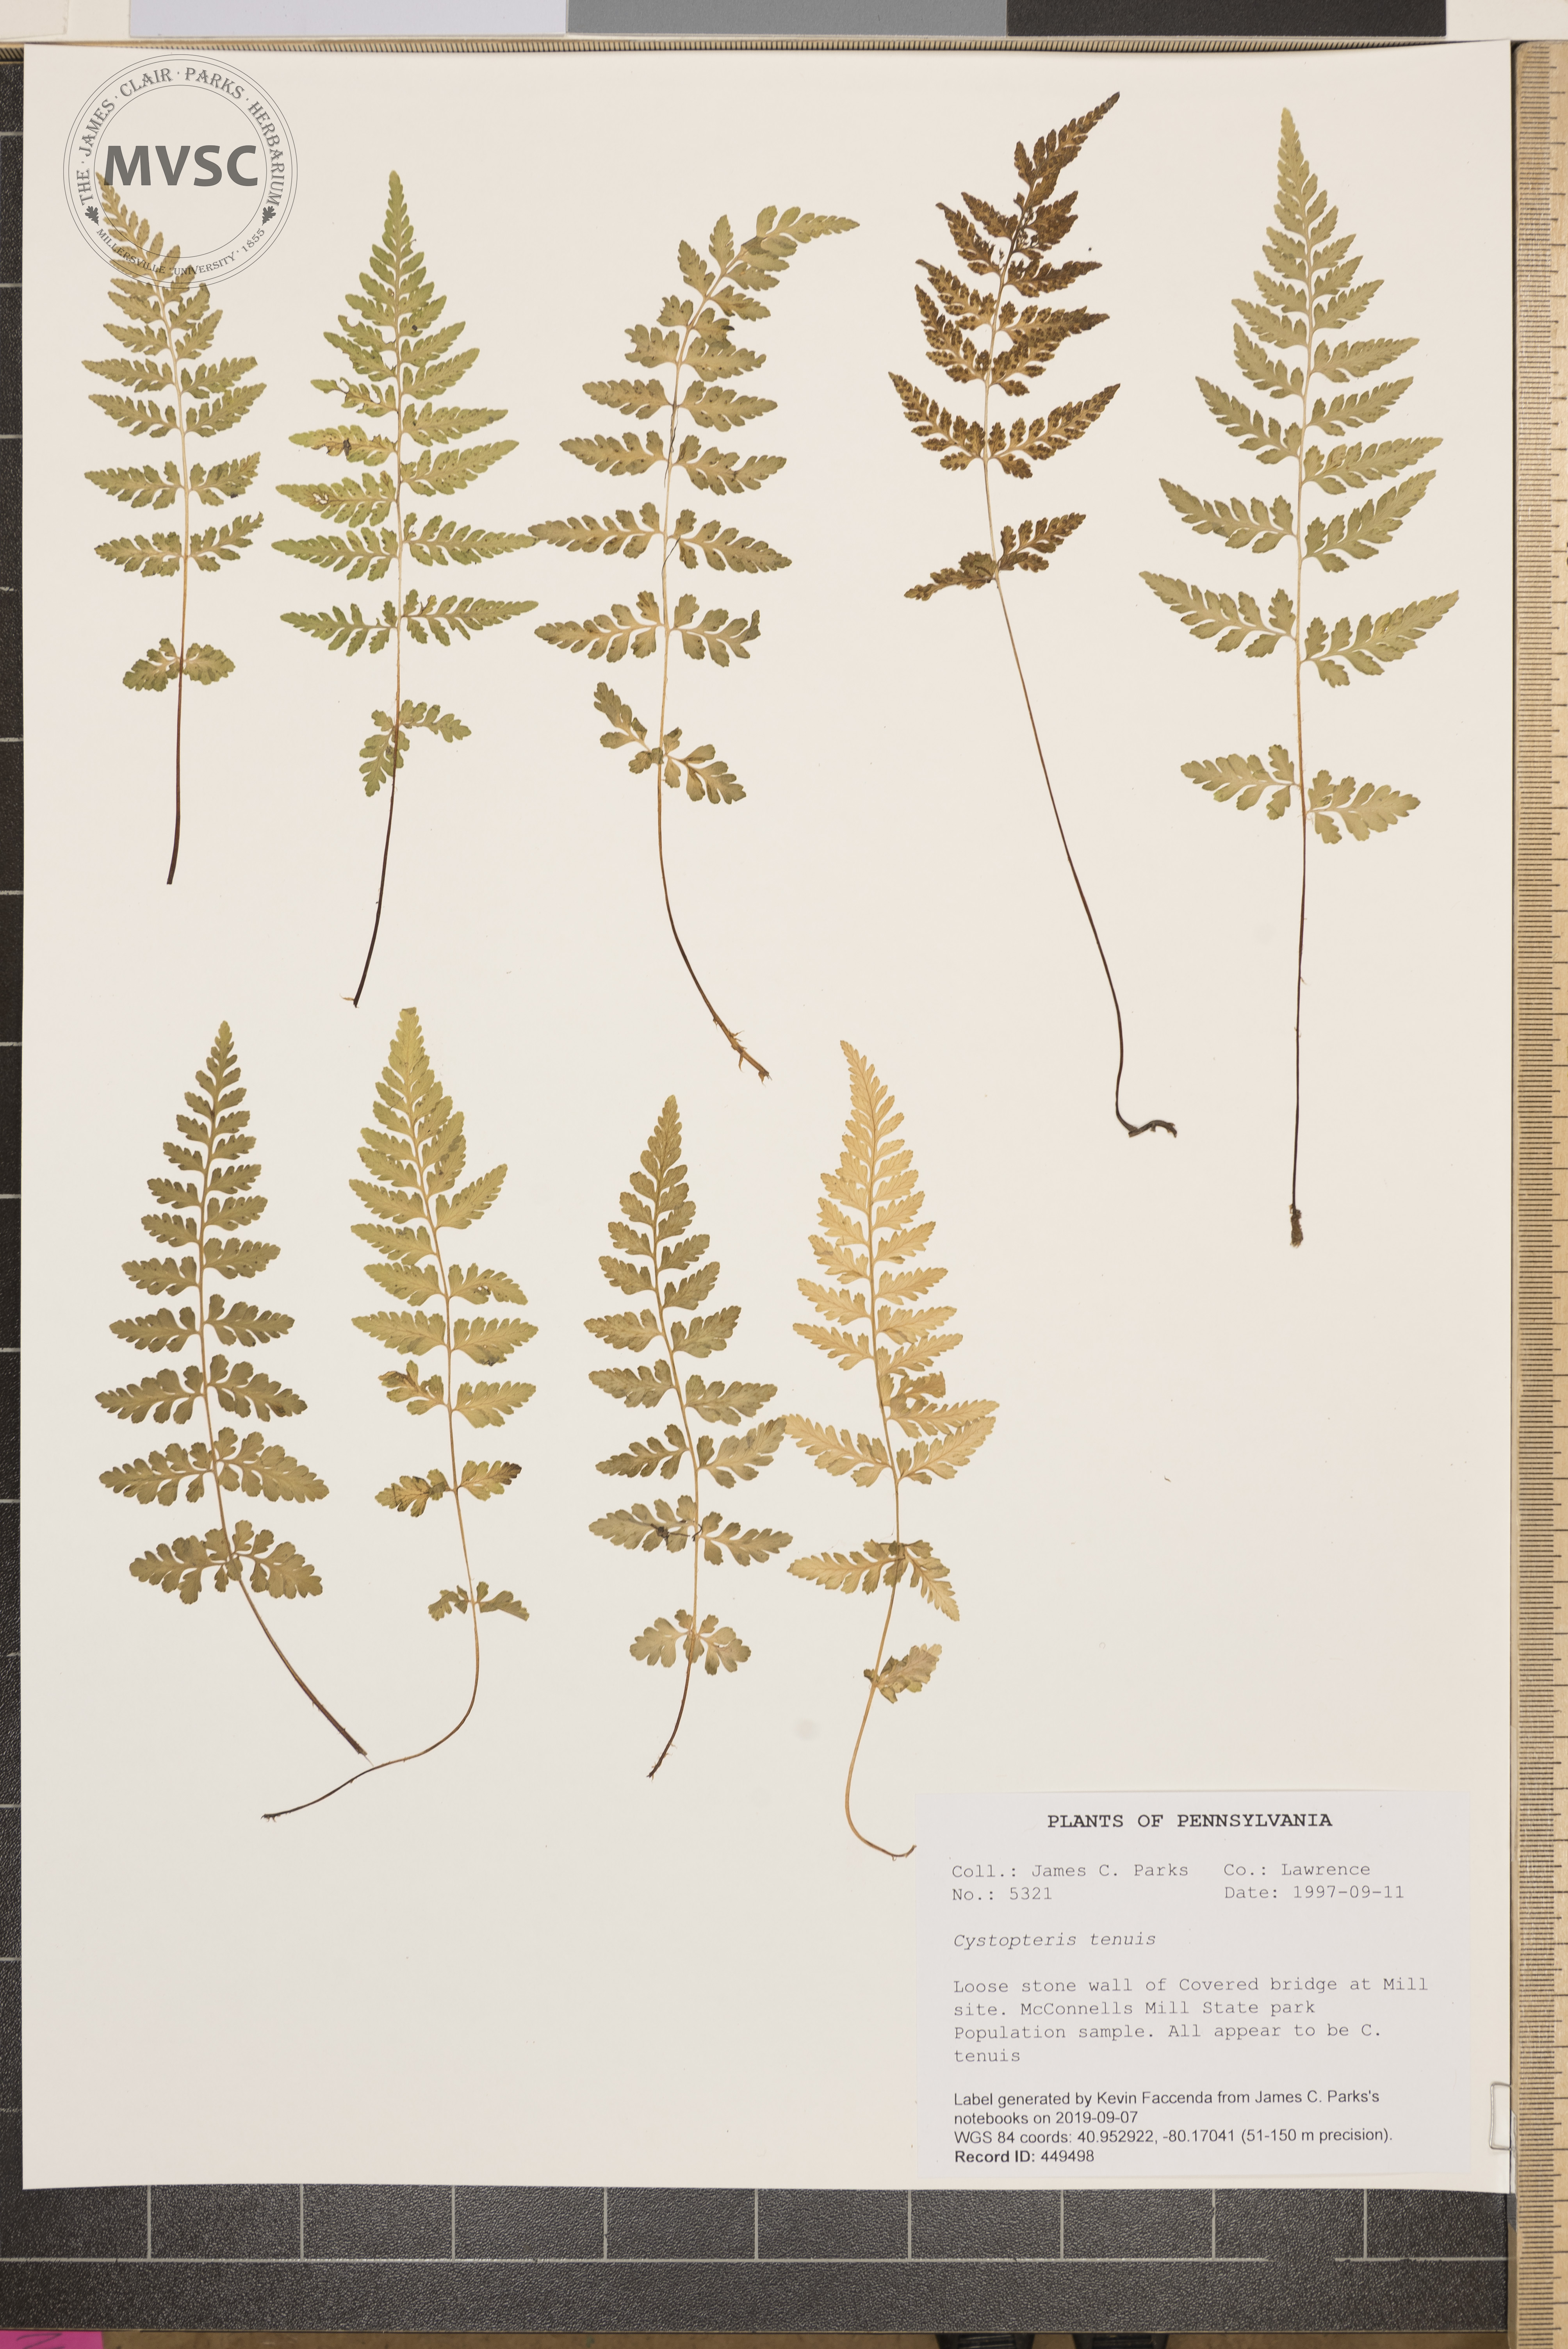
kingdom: Plantae
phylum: Tracheophyta
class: Polypodiopsida
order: Polypodiales
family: Cystopteridaceae
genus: Cystopteris
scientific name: Cystopteris tenuis
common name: Mackay's brittle fern
